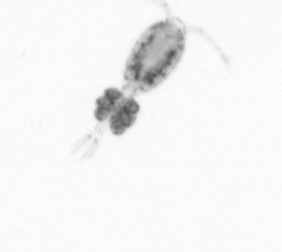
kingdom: Animalia
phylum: Arthropoda
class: Copepoda
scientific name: Copepoda
